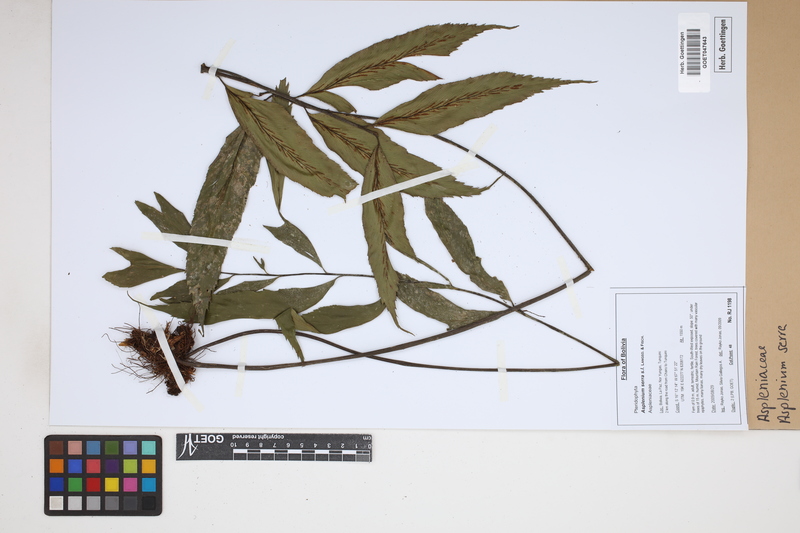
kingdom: Plantae
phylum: Tracheophyta
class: Polypodiopsida
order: Polypodiales
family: Aspleniaceae
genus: Asplenium
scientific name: Asplenium serra
